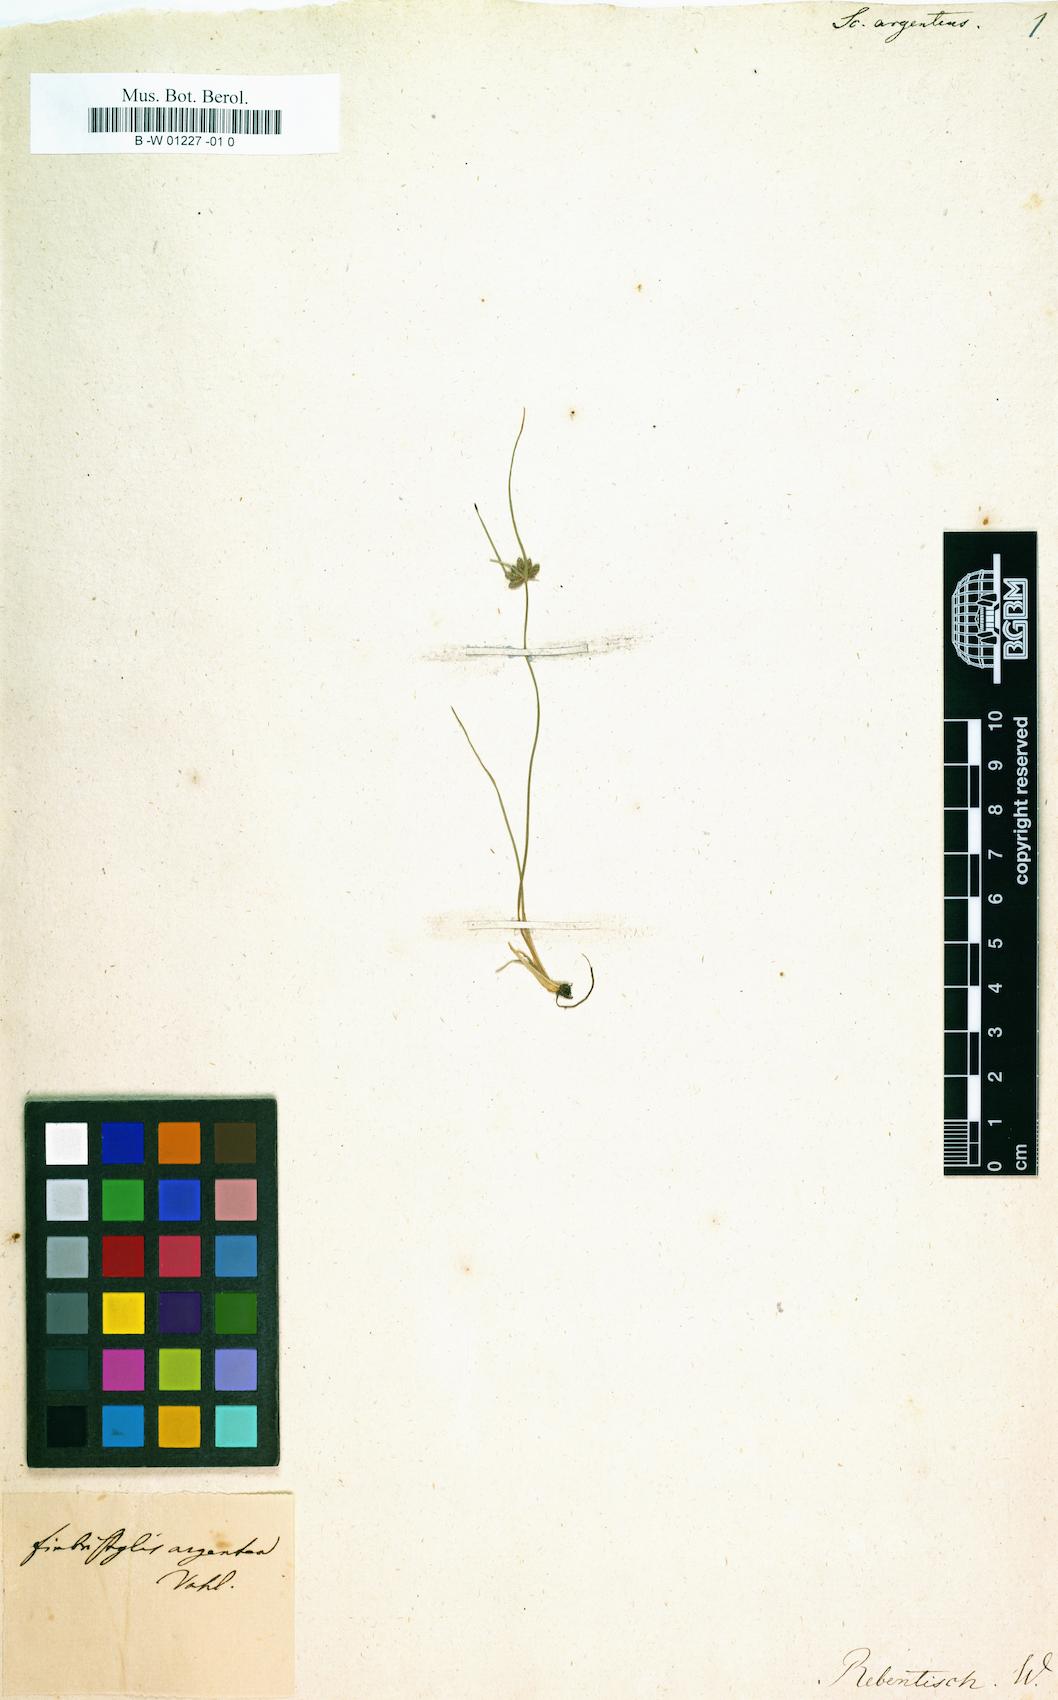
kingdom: Plantae
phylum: Tracheophyta
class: Liliopsida
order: Poales
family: Cyperaceae
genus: Fimbristylis
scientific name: Fimbristylis argentea
